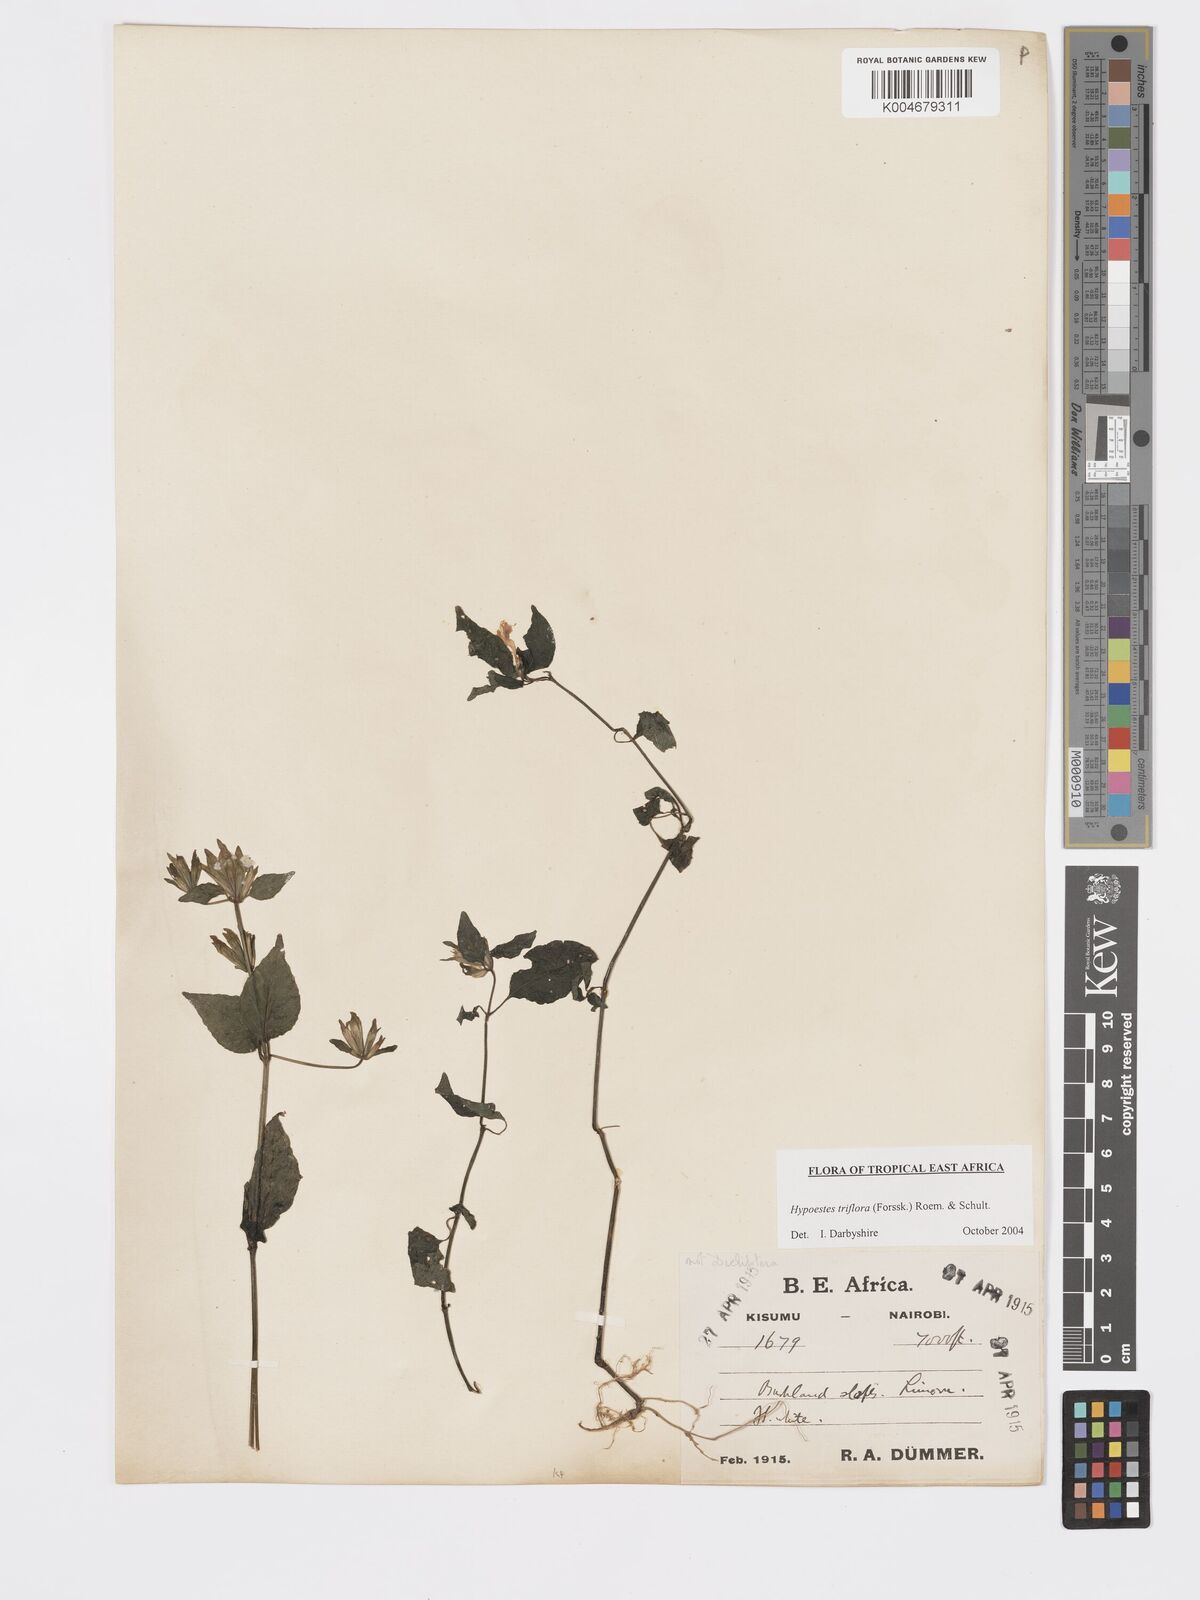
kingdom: Plantae
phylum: Tracheophyta
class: Magnoliopsida
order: Lamiales
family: Acanthaceae
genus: Hypoestes
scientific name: Hypoestes triflora
